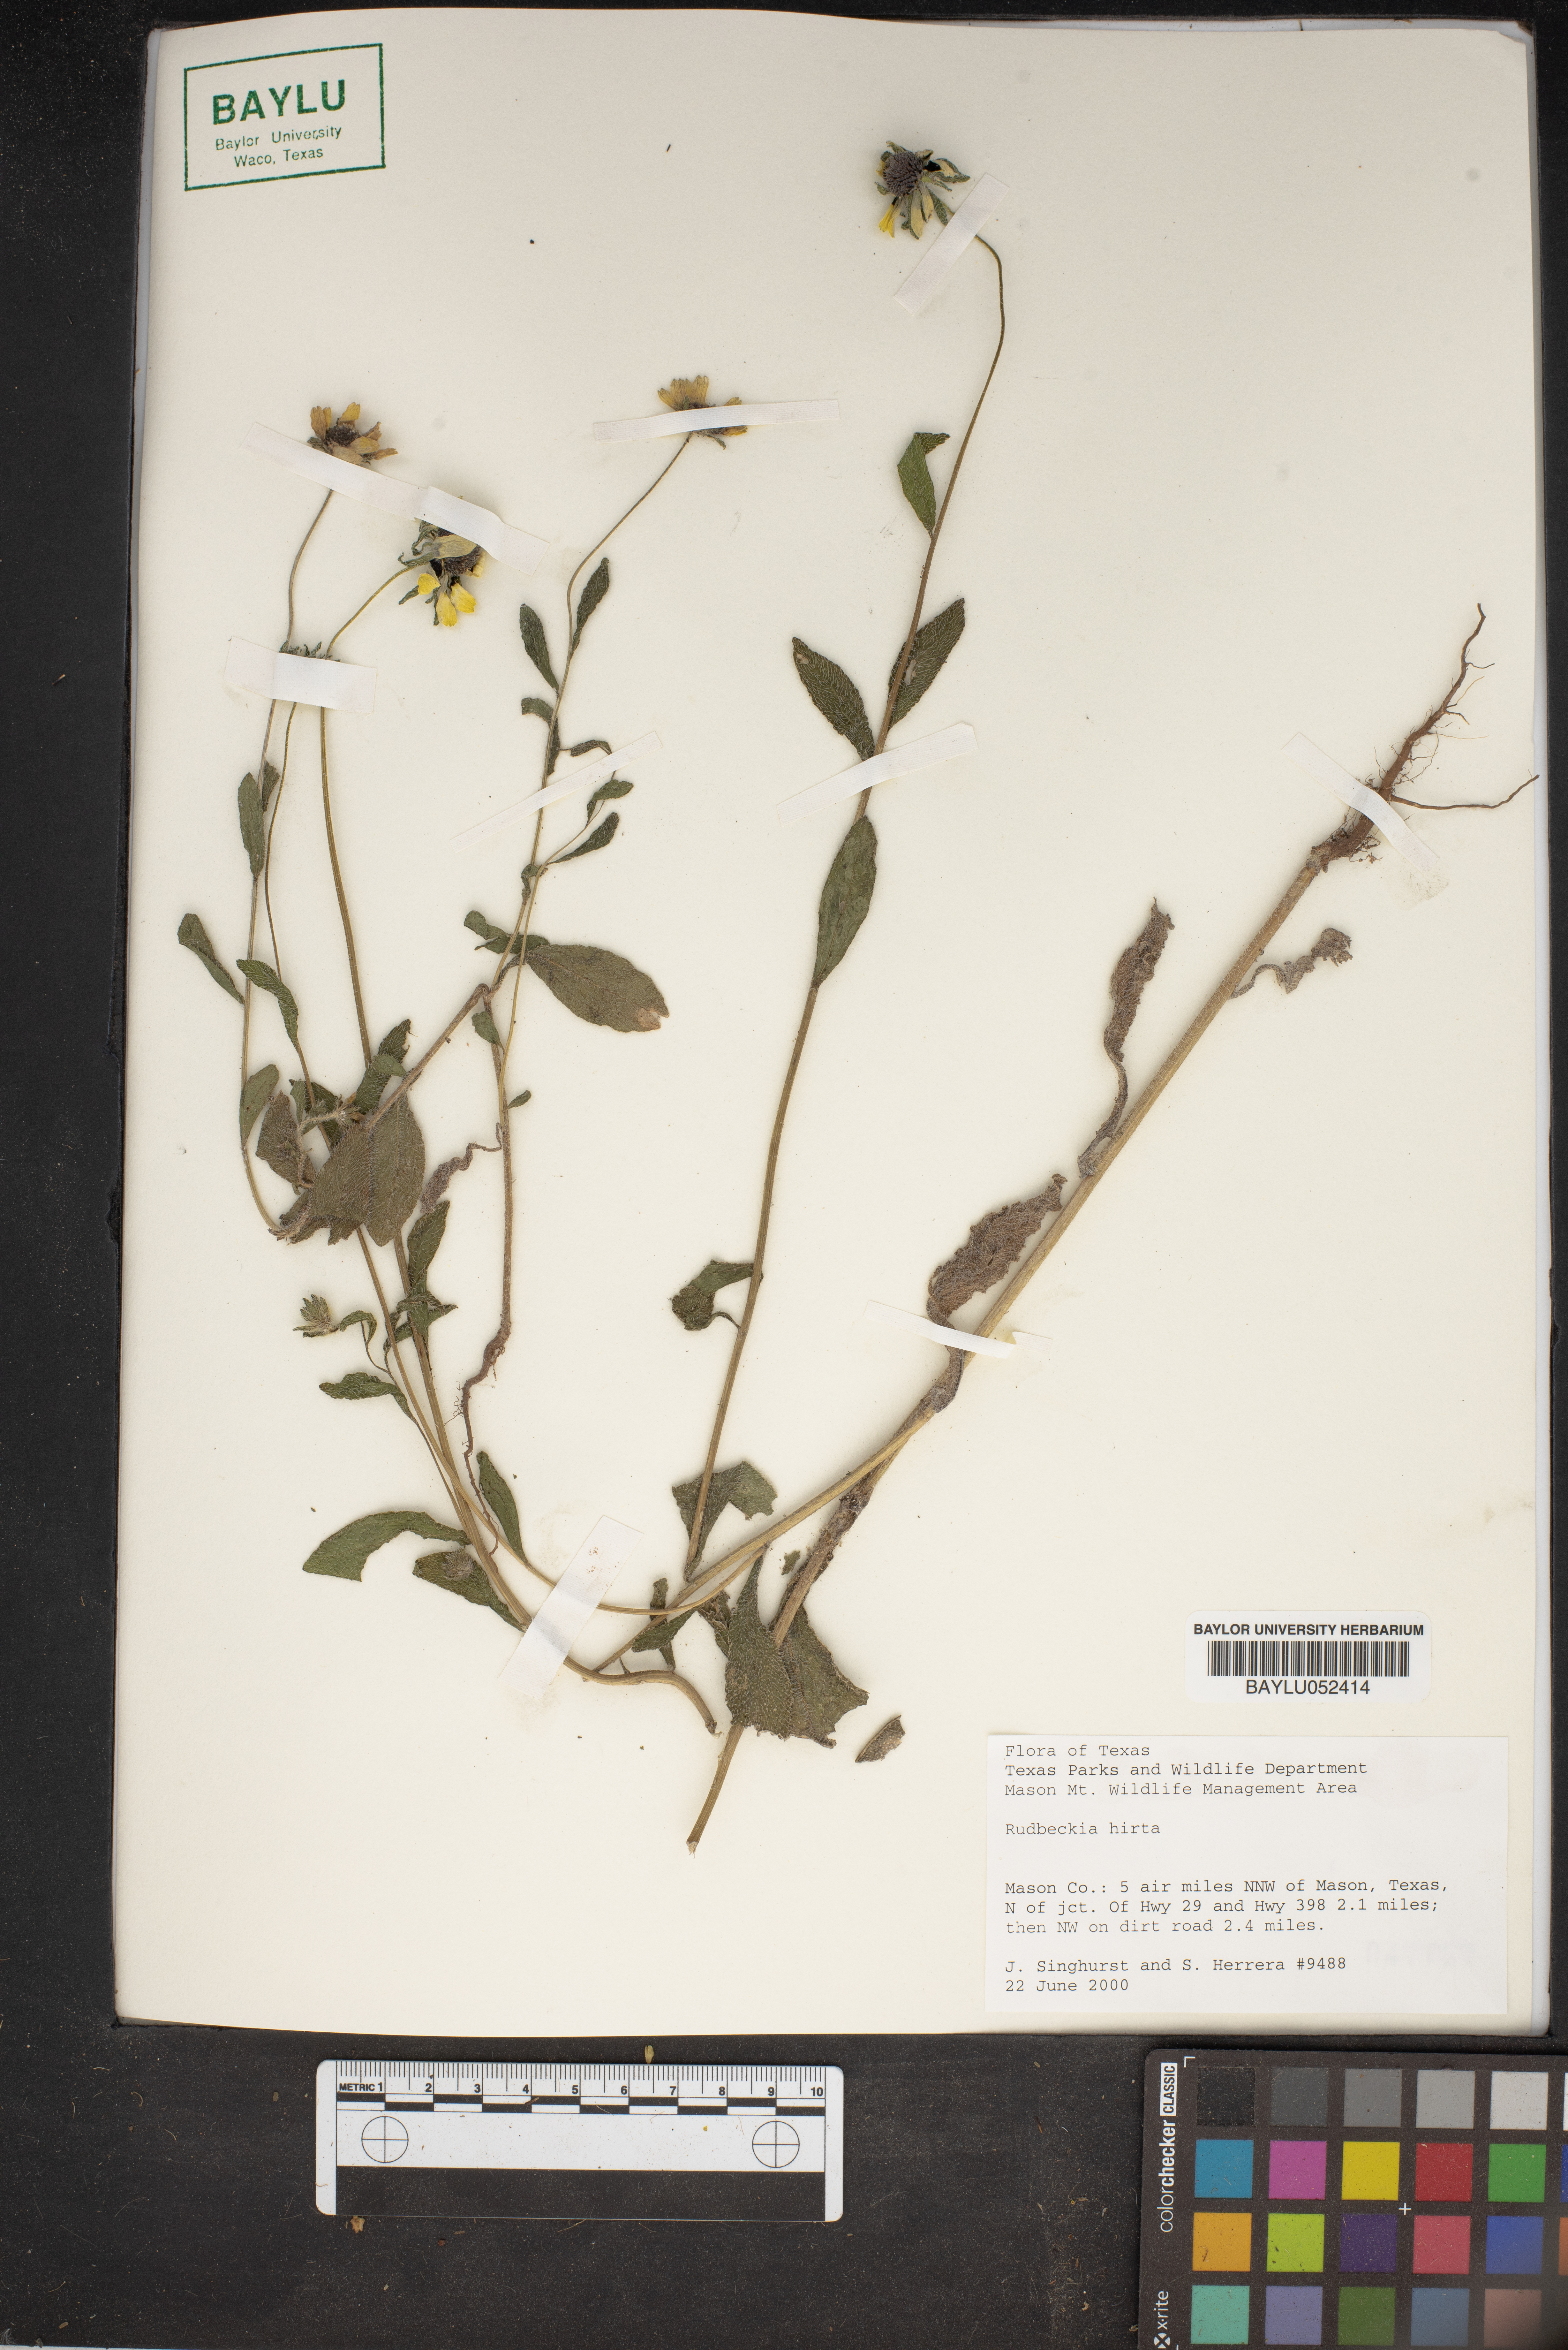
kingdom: Plantae
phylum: Tracheophyta
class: Magnoliopsida
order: Asterales
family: Asteraceae
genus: Rudbeckia
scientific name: Rudbeckia hirta
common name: Black-eyed-susan
